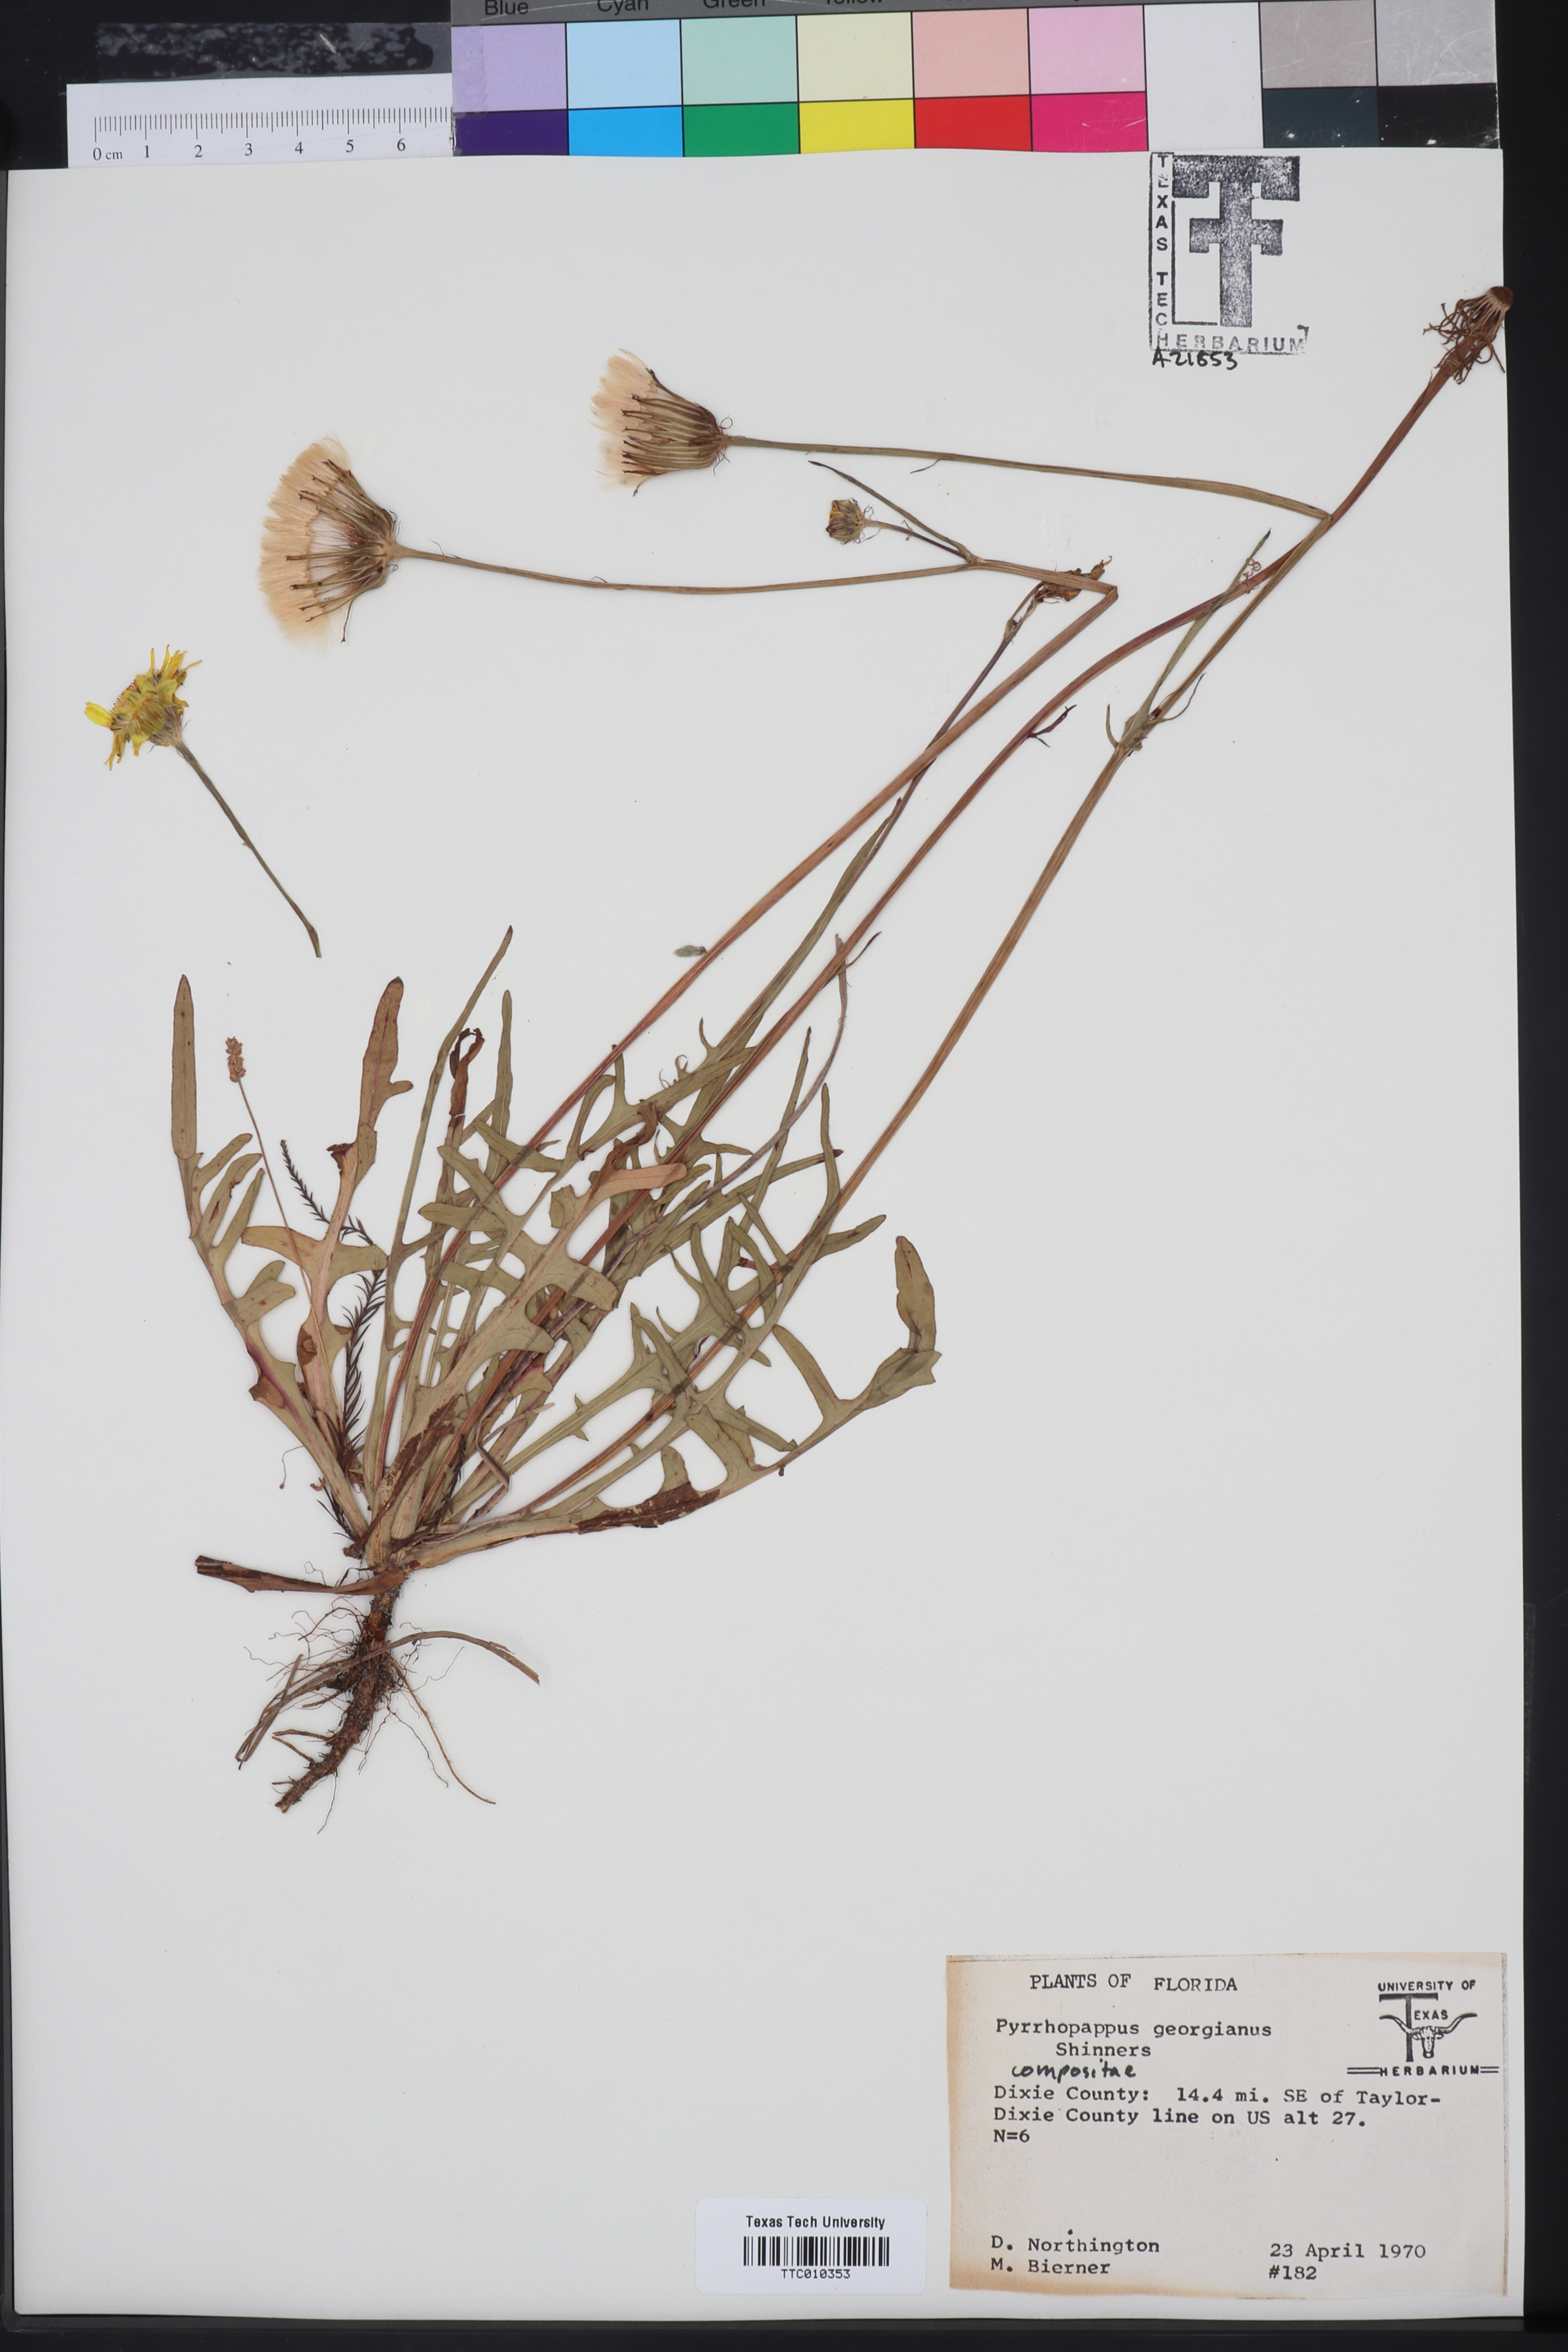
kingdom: Plantae
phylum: Tracheophyta
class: Magnoliopsida
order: Asterales
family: Asteraceae
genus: Pyrrhopappus
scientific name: Pyrrhopappus carolinianus
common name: Carolina desert-chicory
